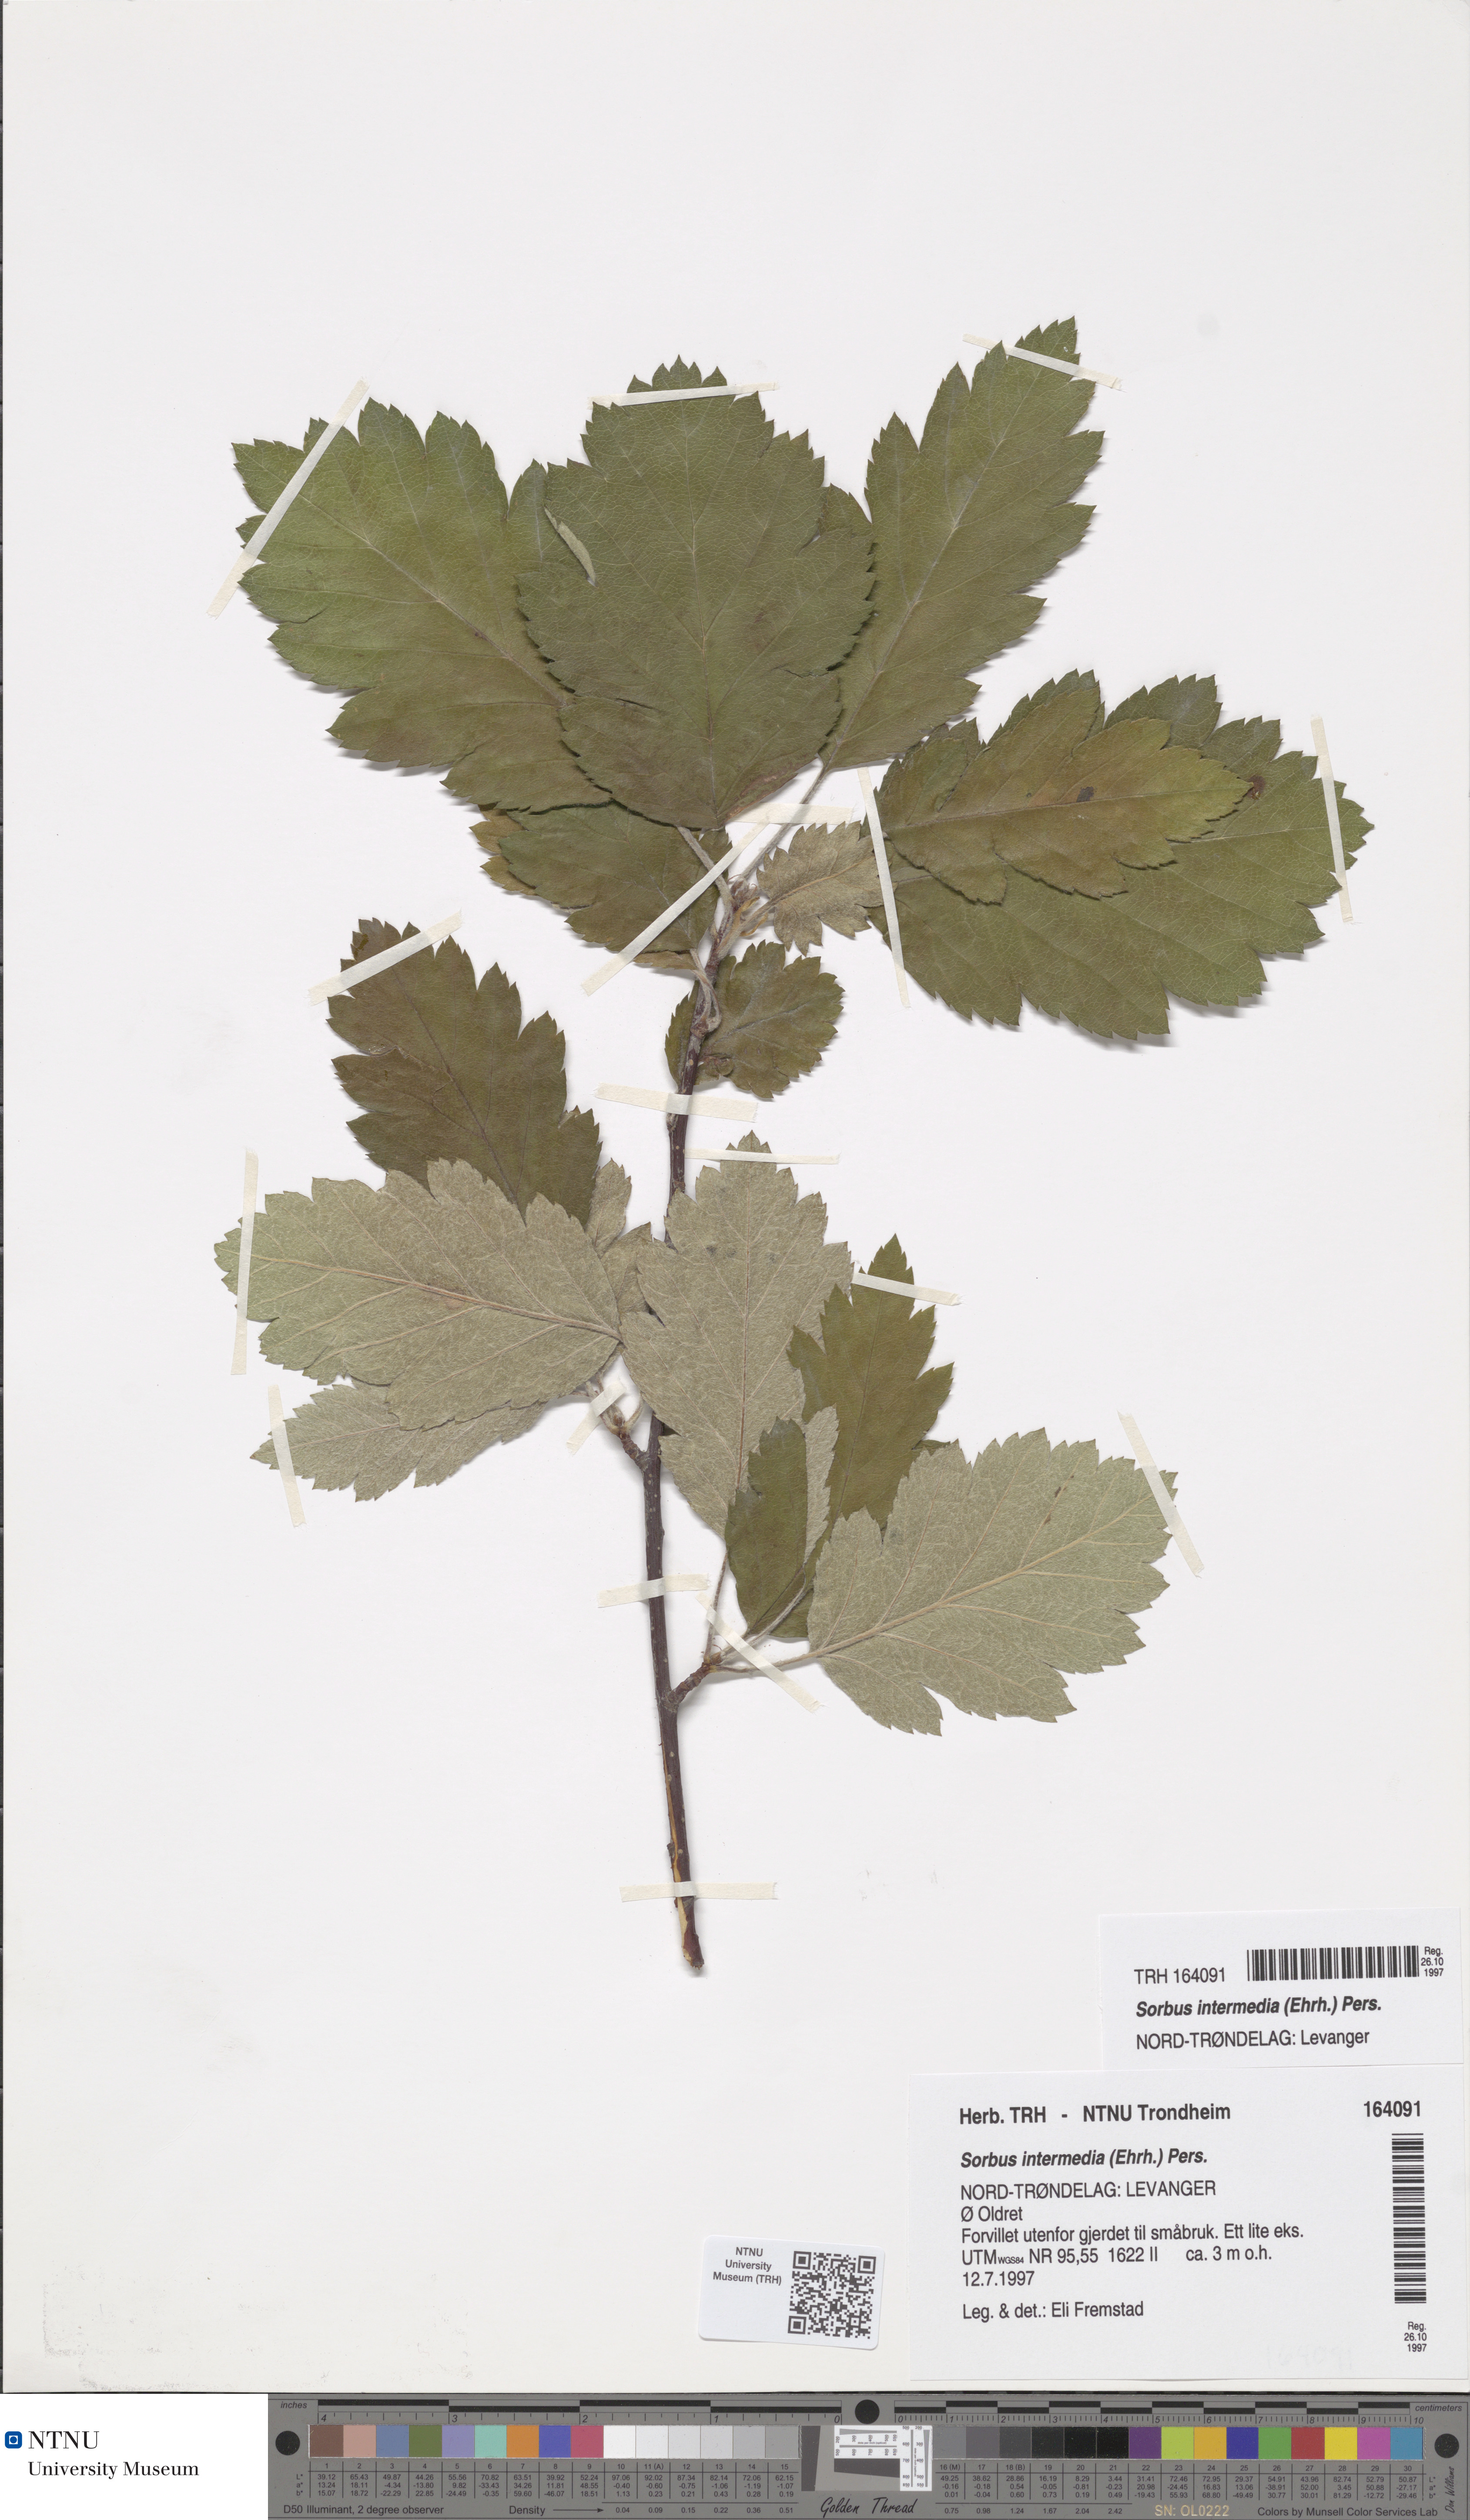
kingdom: Plantae
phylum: Tracheophyta
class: Magnoliopsida
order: Rosales
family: Rosaceae
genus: Scandosorbus
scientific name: Scandosorbus intermedia
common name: Swedish whitebeam
